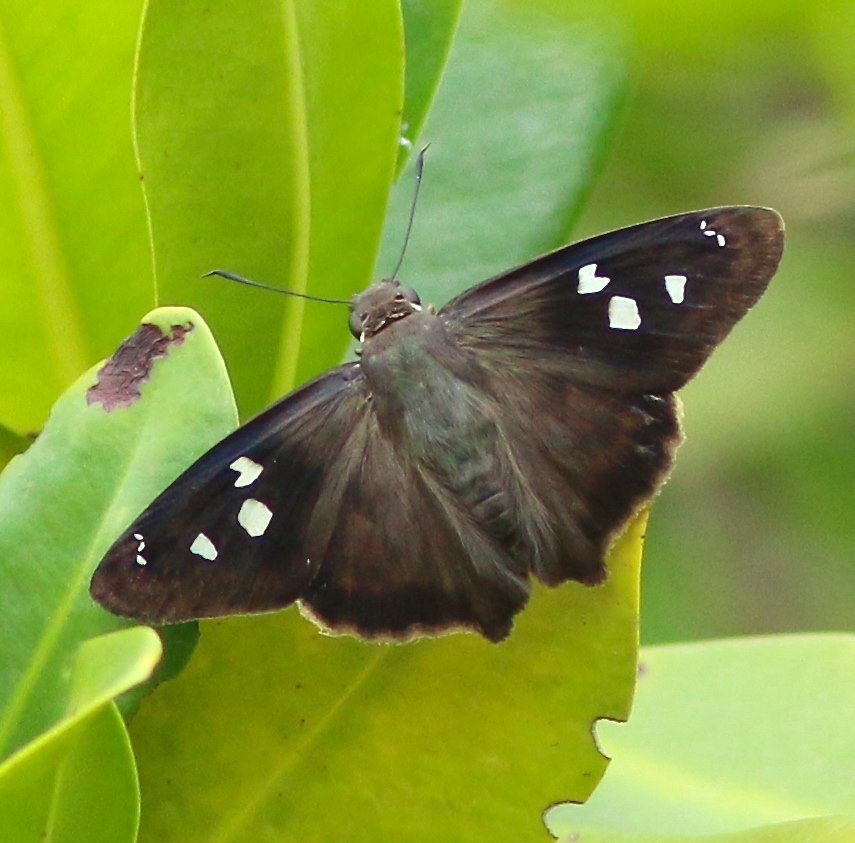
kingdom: Animalia
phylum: Arthropoda
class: Insecta
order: Lepidoptera
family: Hesperiidae
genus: Polygonus
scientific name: Polygonus leo
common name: Hammock Skipper
